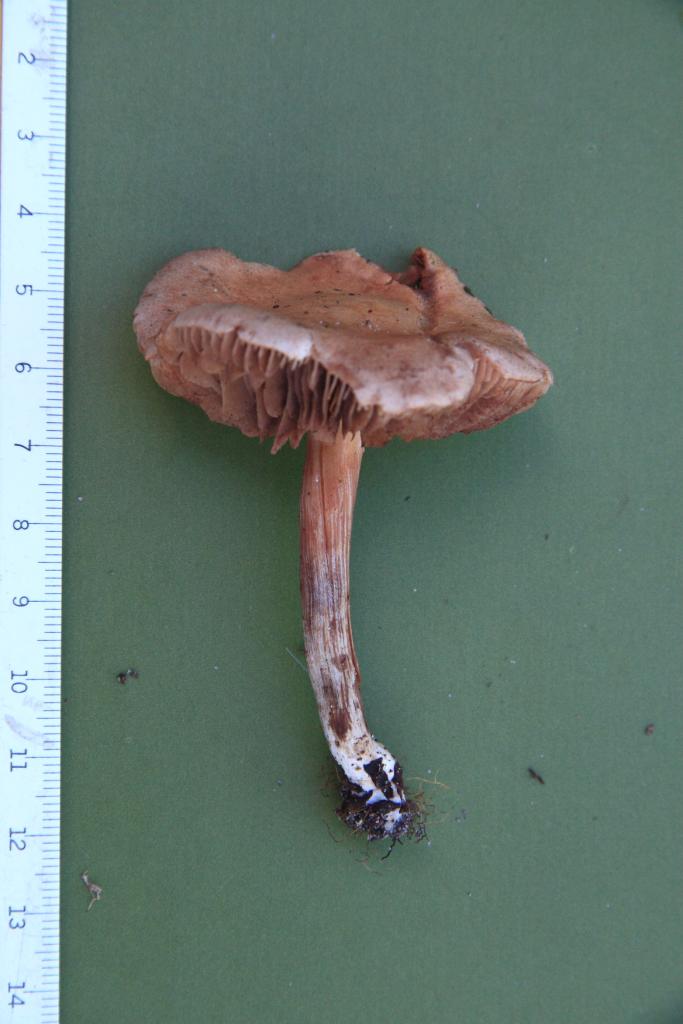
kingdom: Fungi
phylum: Basidiomycota
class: Agaricomycetes
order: Agaricales
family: Hymenogastraceae
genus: Hebeloma
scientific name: Hebeloma fusisporum
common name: kandis-tåreblad
